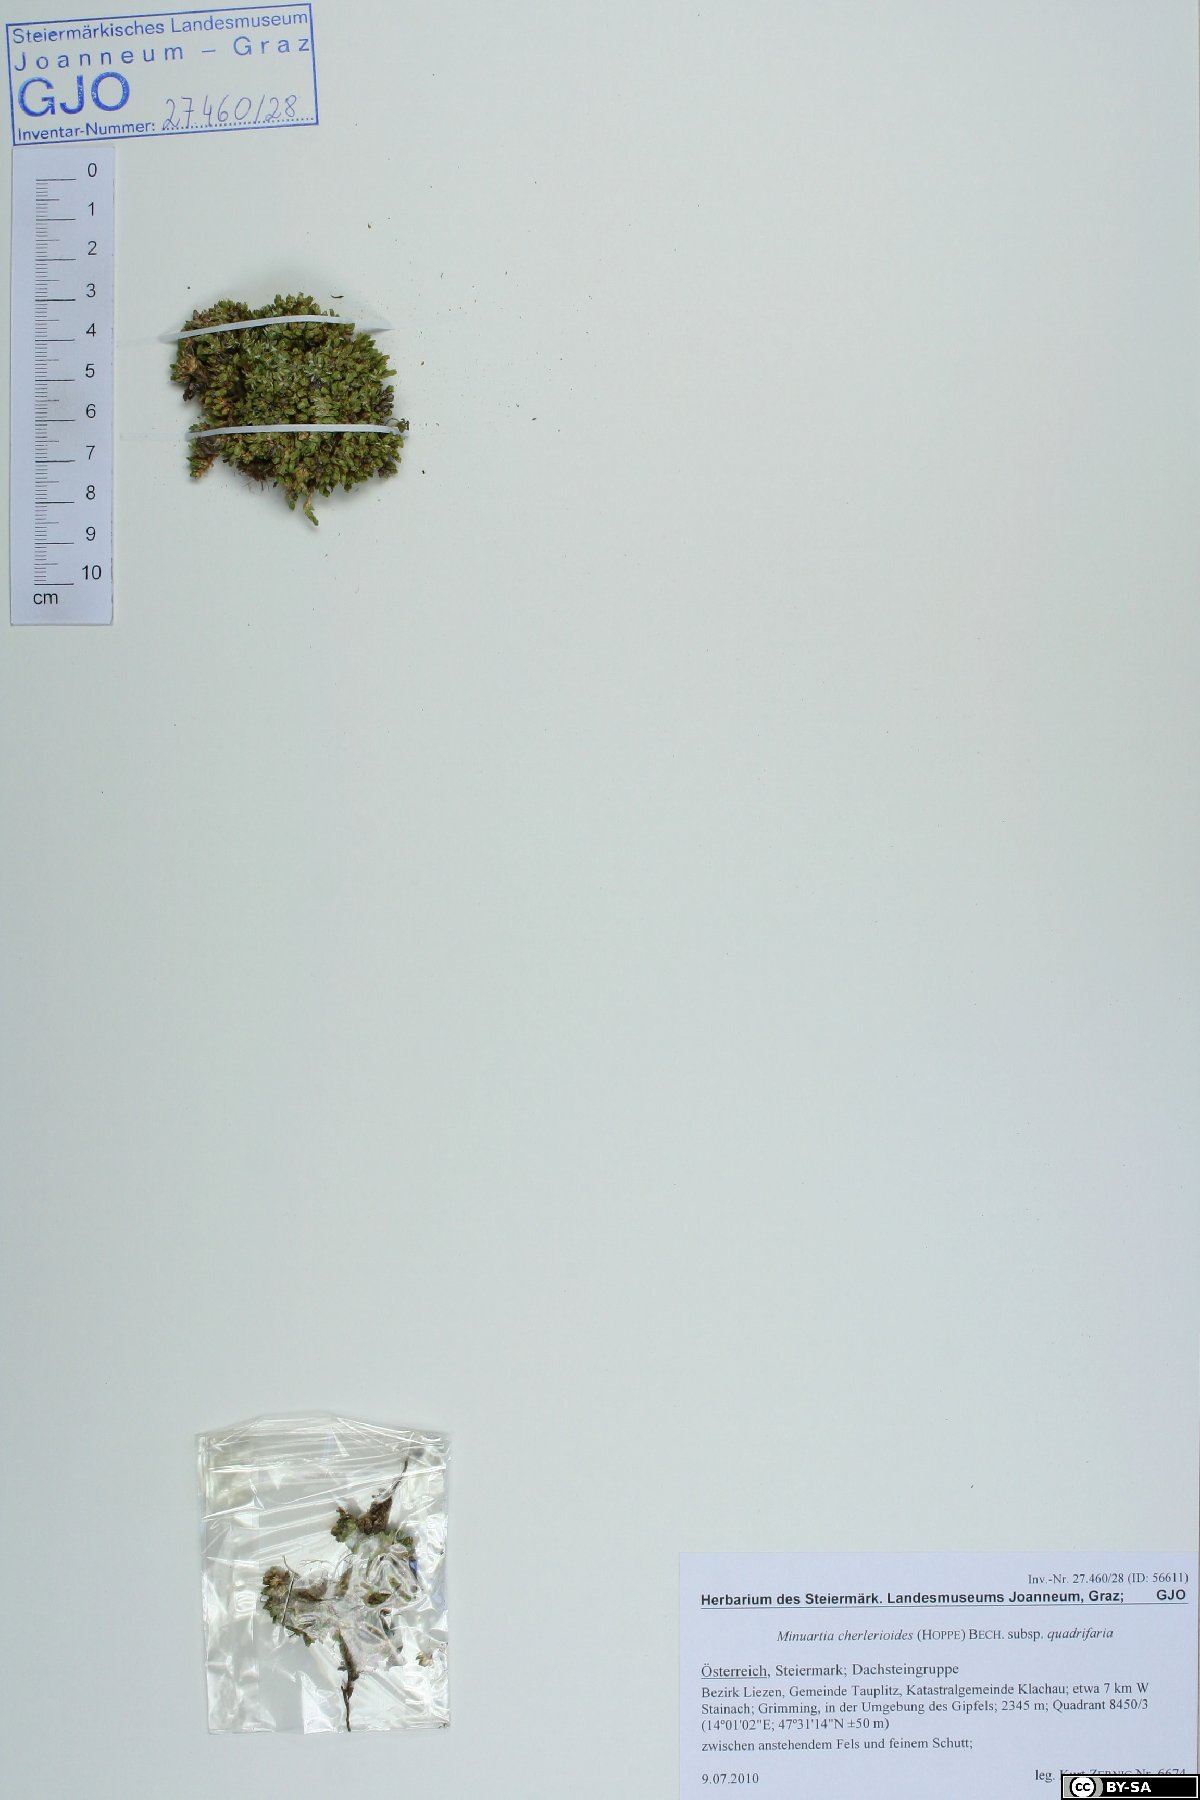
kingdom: Plantae
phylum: Tracheophyta
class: Magnoliopsida
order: Caryophyllales
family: Caryophyllaceae
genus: Facchinia
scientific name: Facchinia cherlerioides
